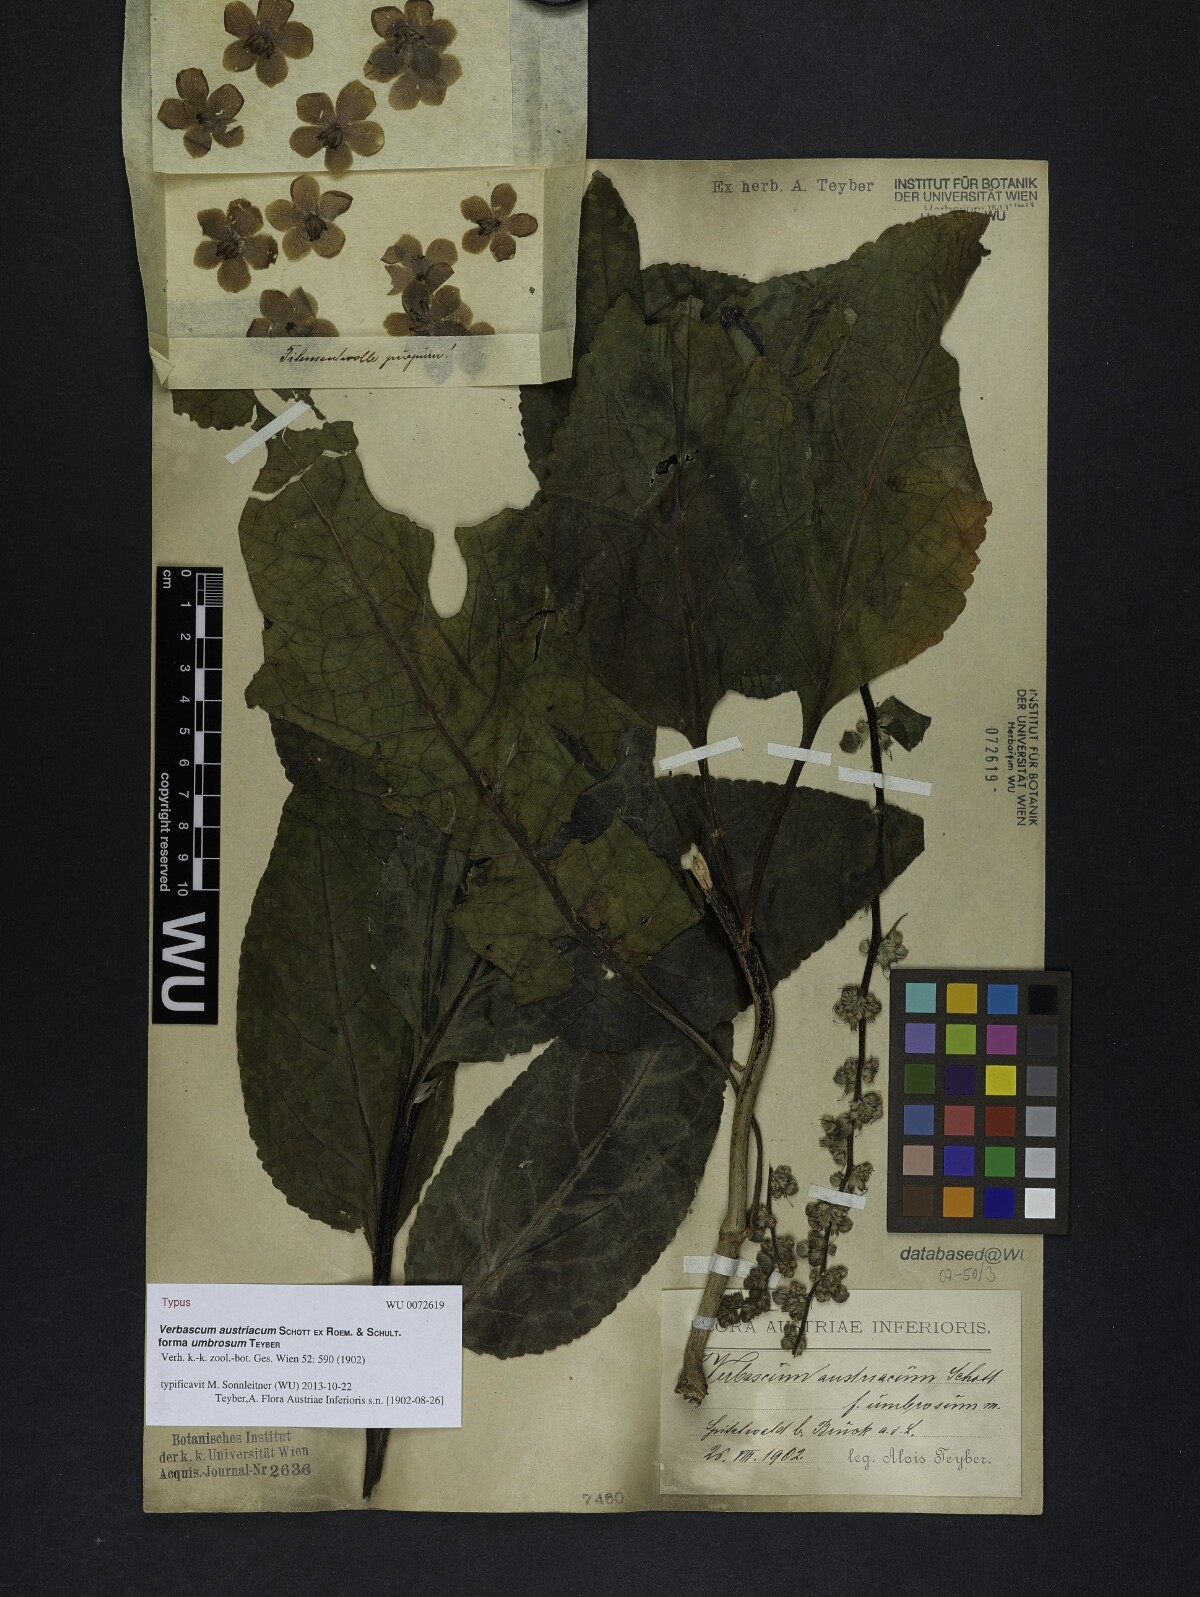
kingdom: Plantae
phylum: Tracheophyta
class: Magnoliopsida
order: Lamiales
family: Scrophulariaceae
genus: Verbascum
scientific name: Verbascum chaixii
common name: Nettle-leaved mullein
